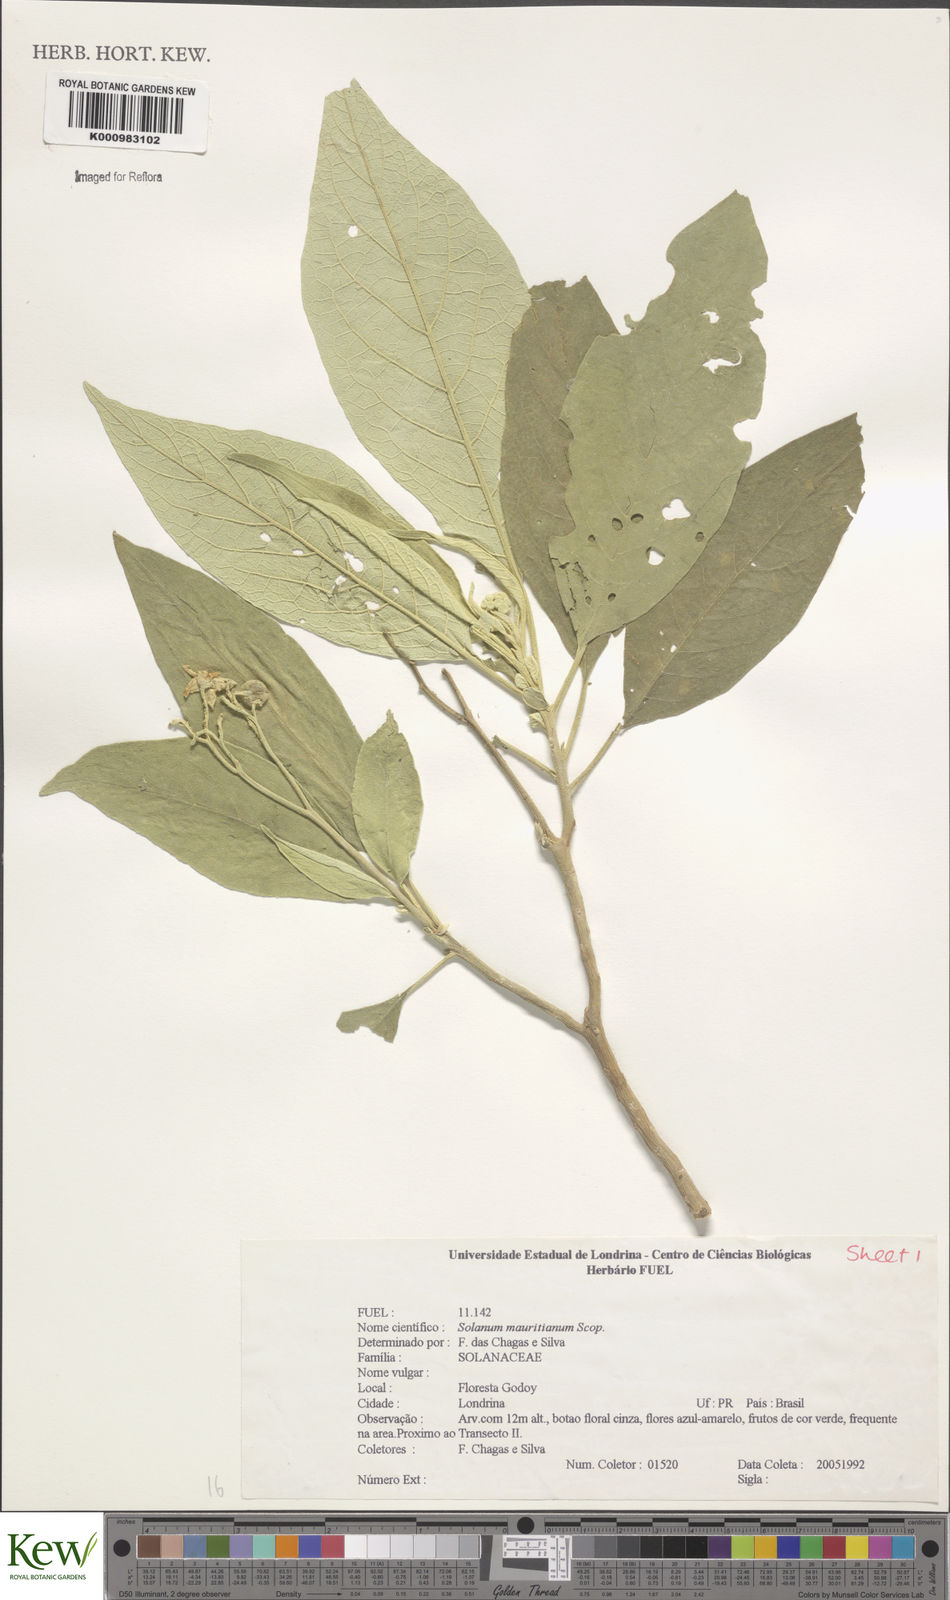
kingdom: Plantae
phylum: Tracheophyta
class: Magnoliopsida
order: Solanales
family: Solanaceae
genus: Solanum
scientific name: Solanum mauritianum
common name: Earleaf nightshade
